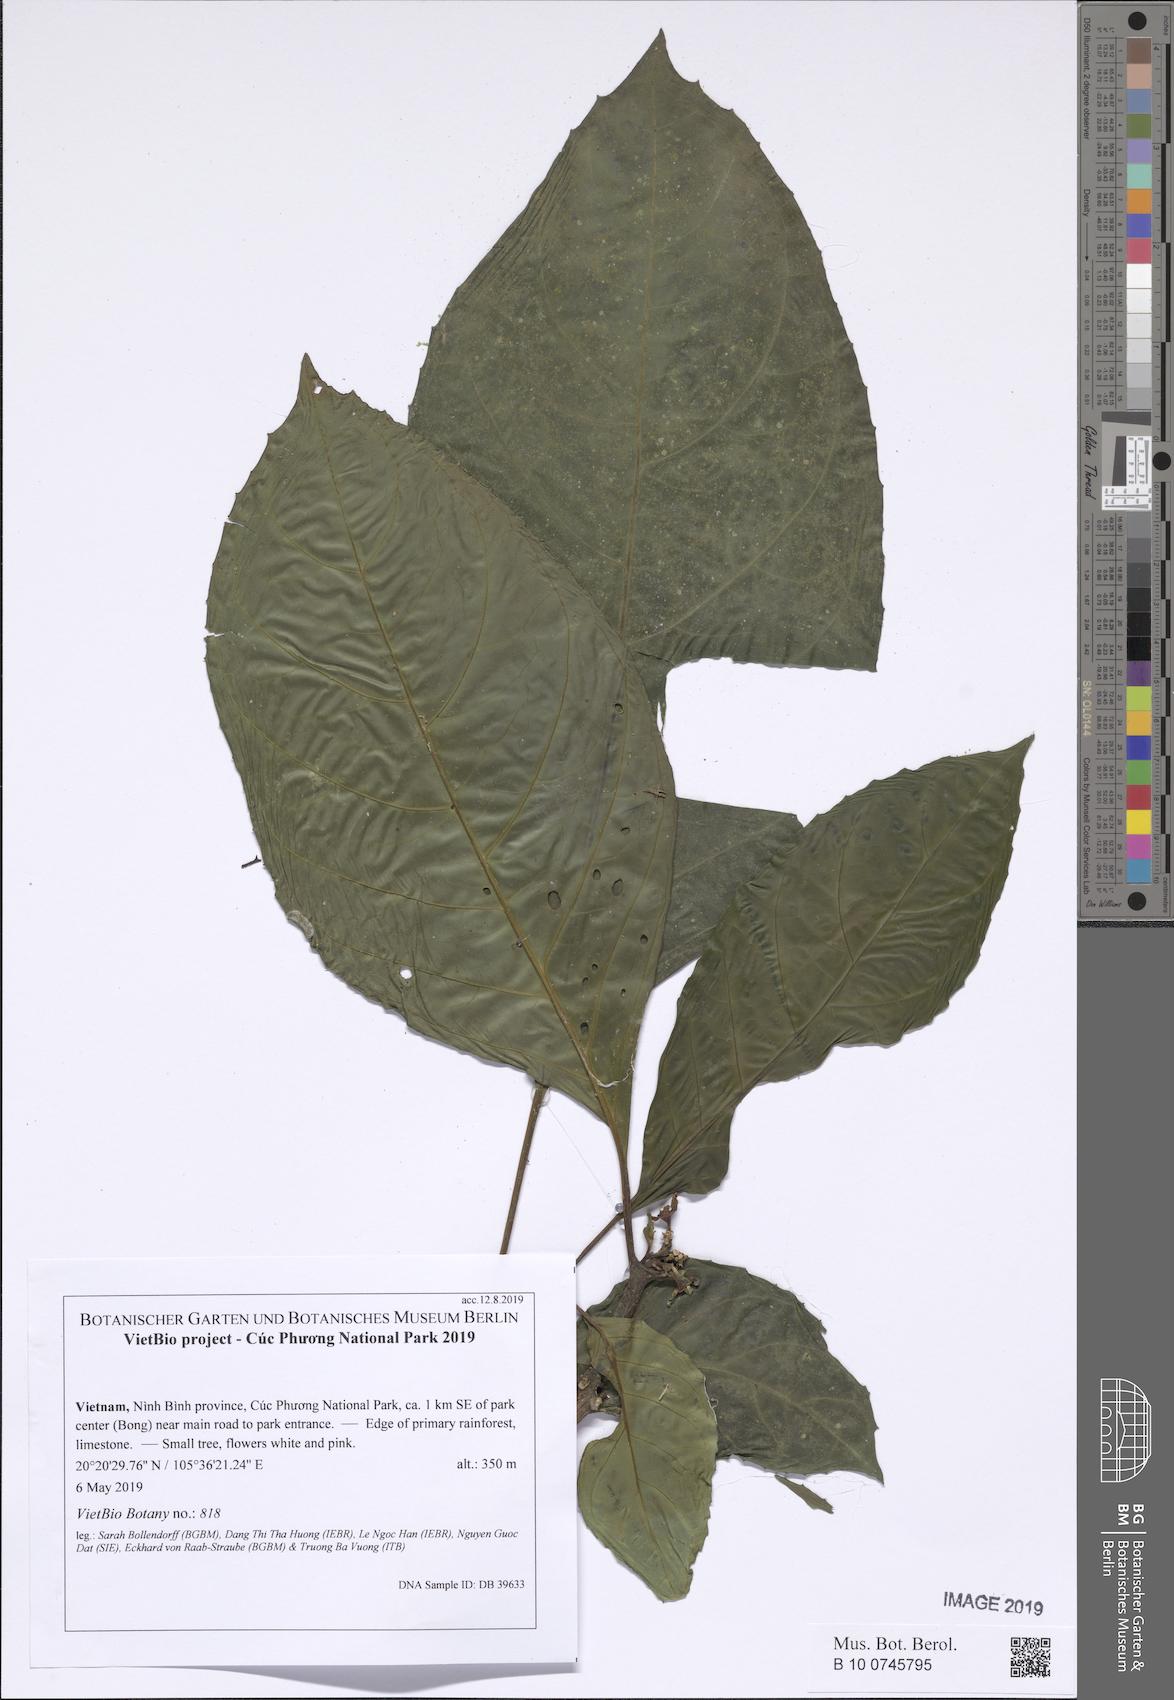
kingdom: Plantae
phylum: Tracheophyta
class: Magnoliopsida
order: Lamiales
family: Lamiaceae
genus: Clerodendrum
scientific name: Clerodendrum
